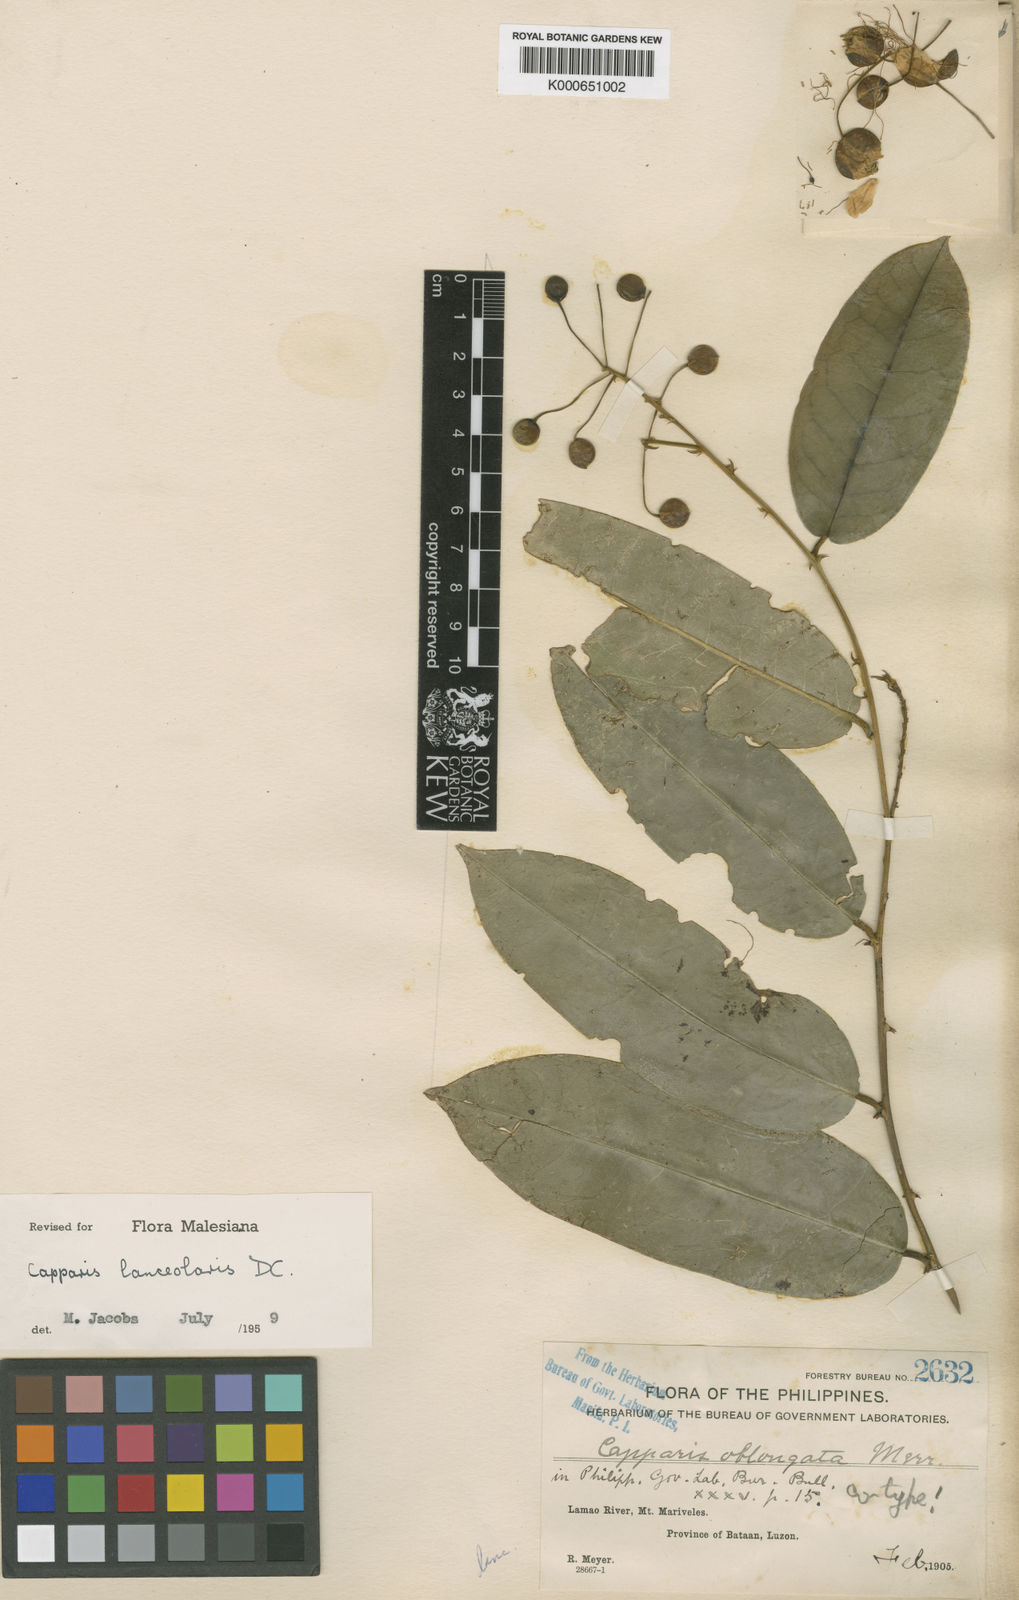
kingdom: Plantae
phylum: Tracheophyta
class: Magnoliopsida
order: Brassicales
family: Capparaceae
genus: Capparis
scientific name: Capparis lanceolaris
